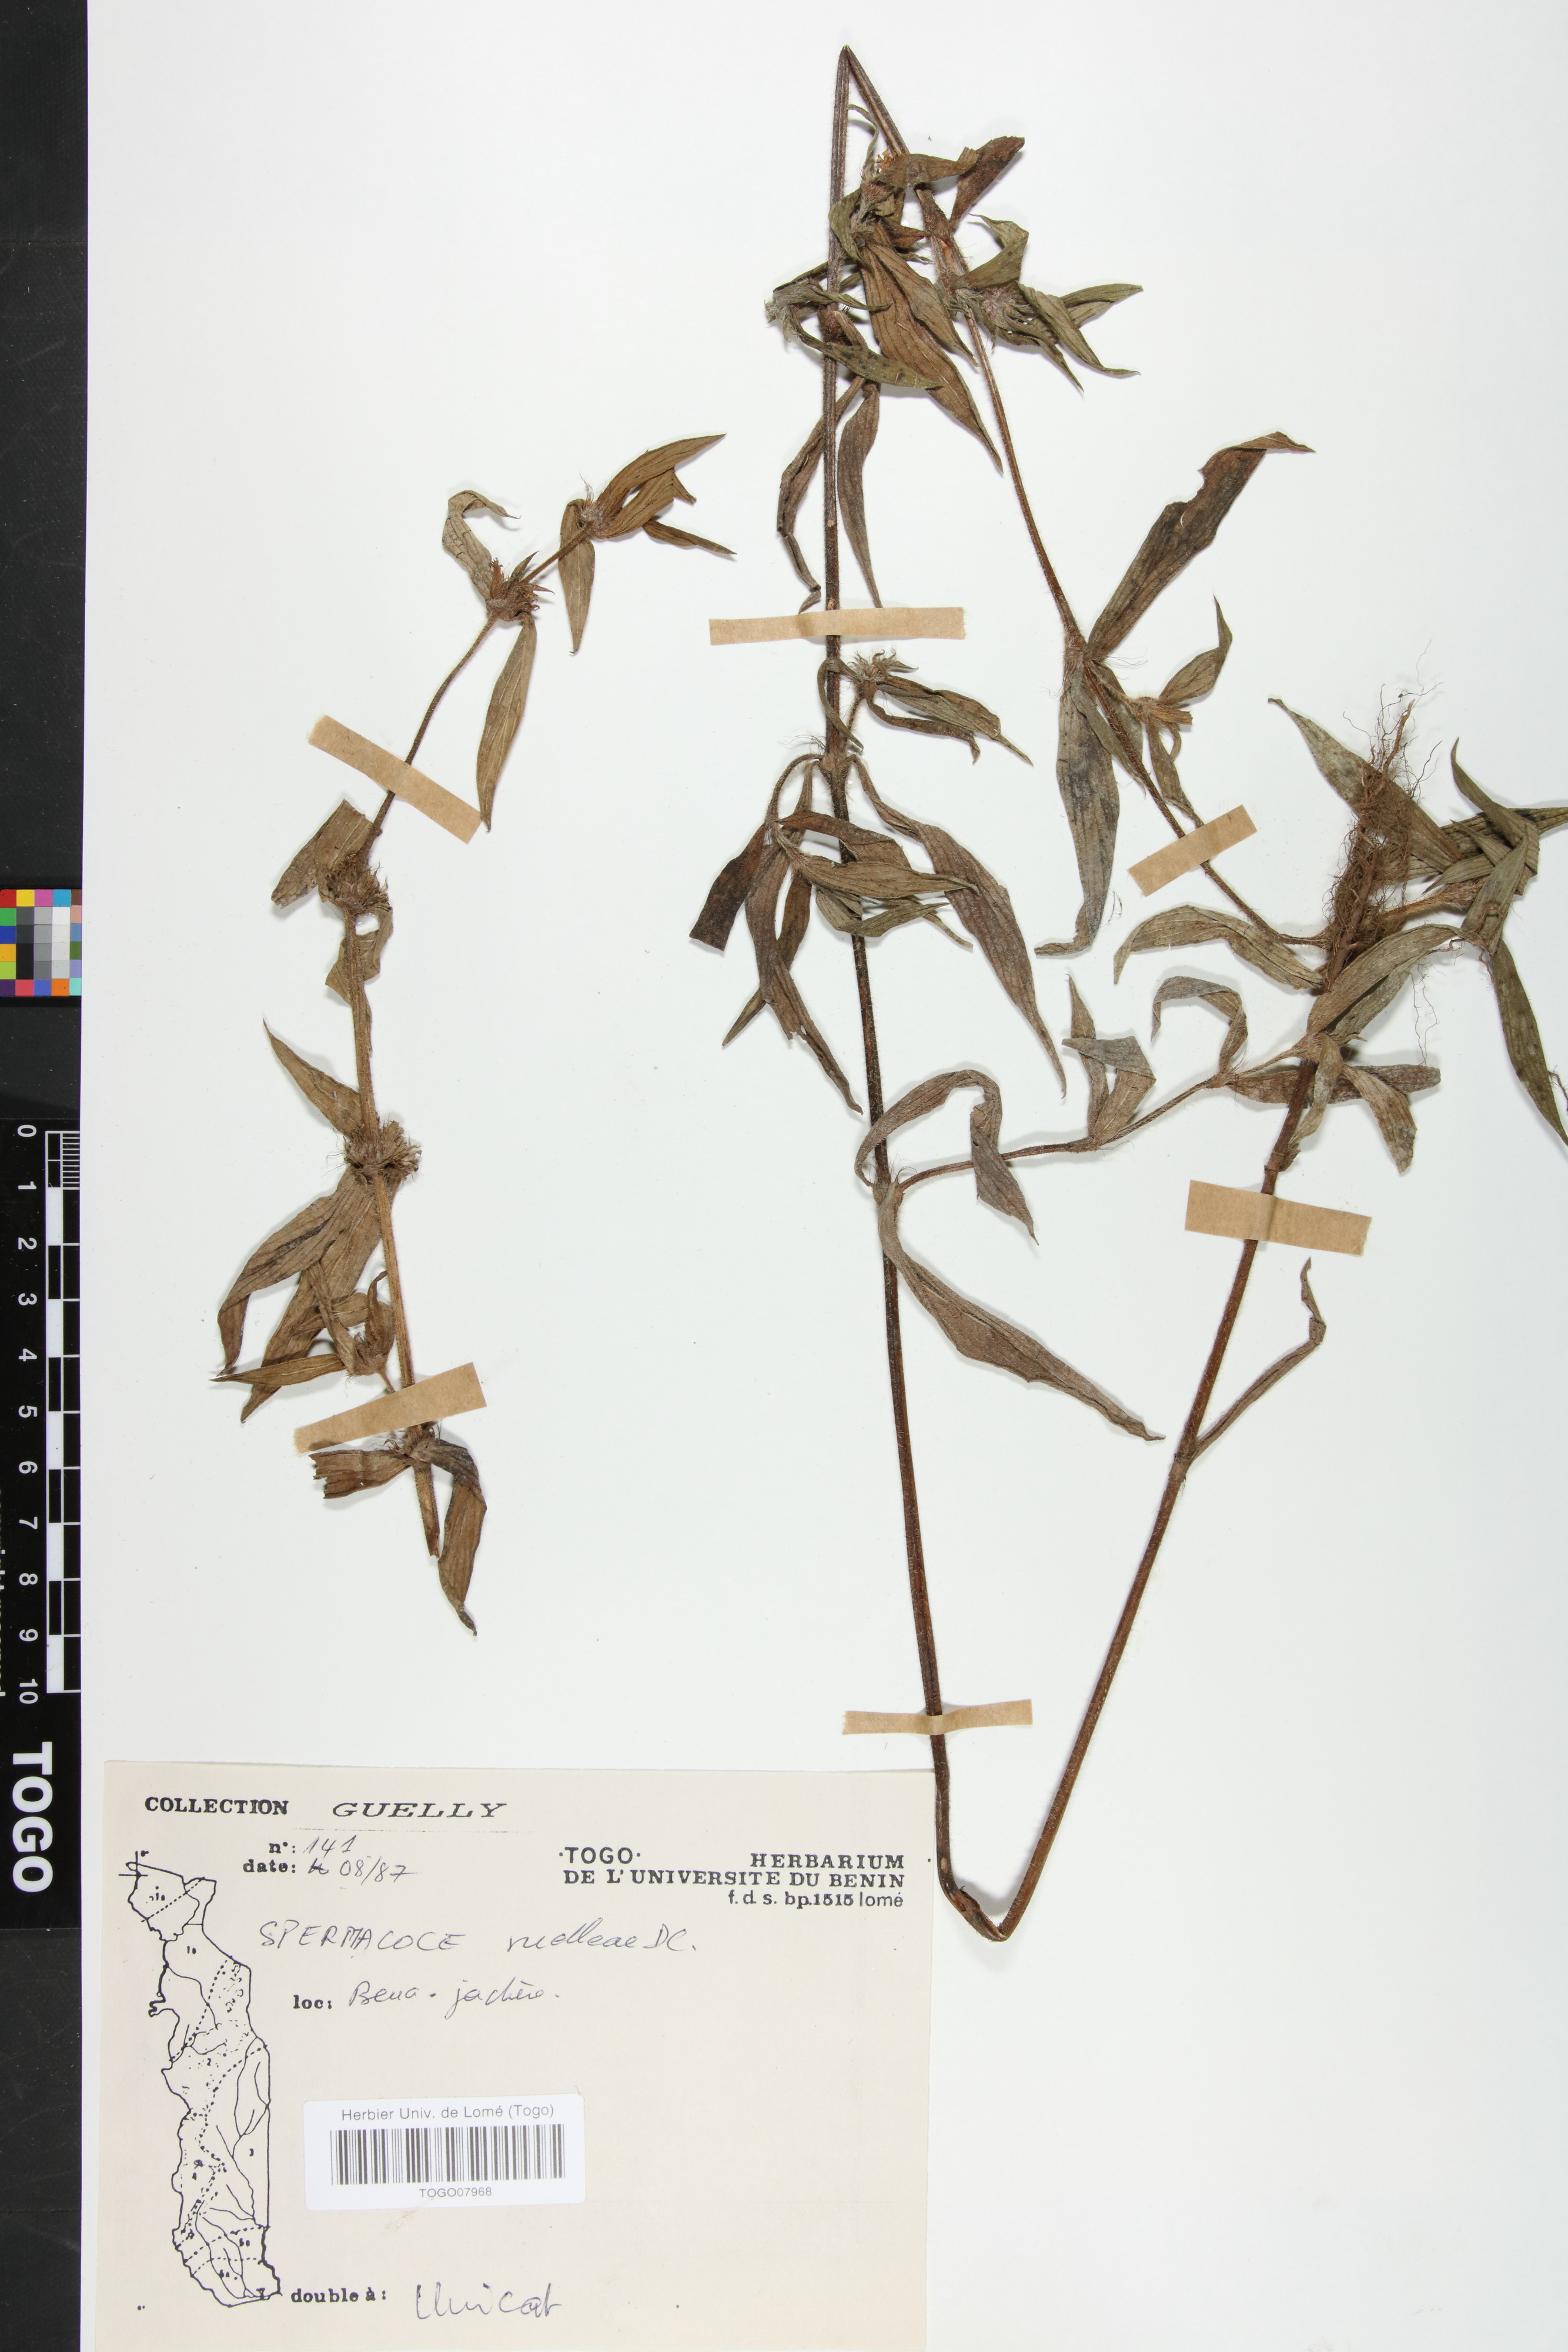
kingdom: Plantae
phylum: Tracheophyta
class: Magnoliopsida
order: Gentianales
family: Rubiaceae
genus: Spermacoce
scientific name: Spermacoce ruelliae
